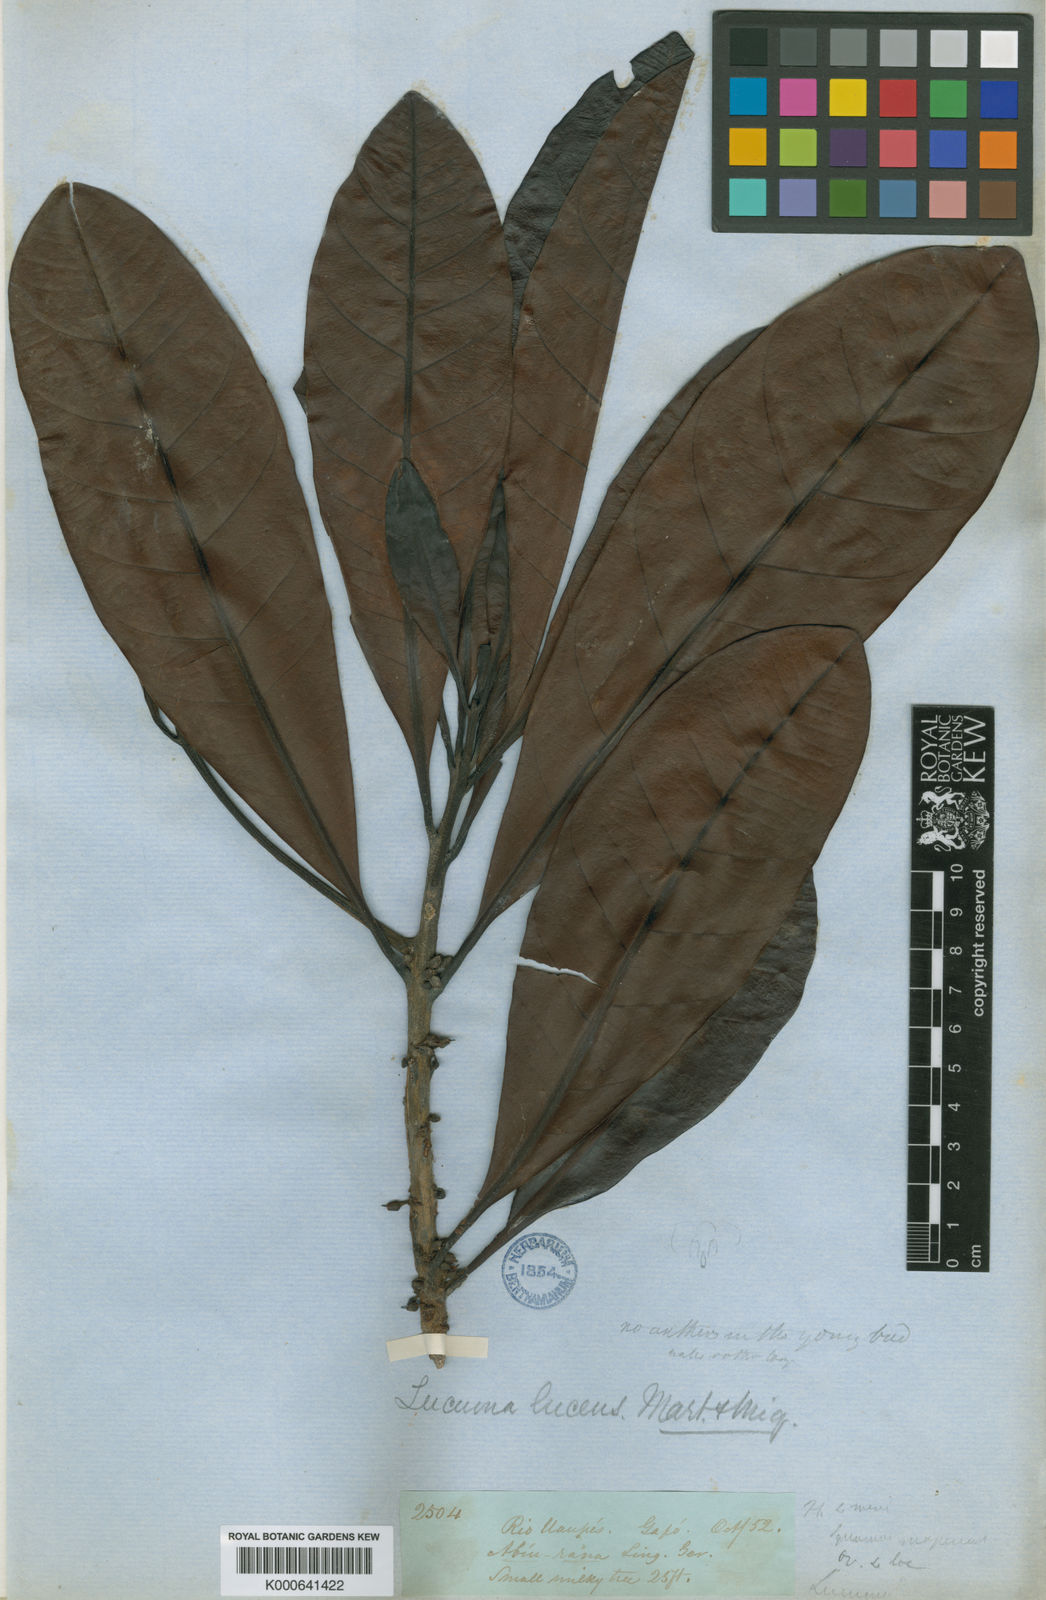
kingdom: Plantae
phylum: Tracheophyta
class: Magnoliopsida
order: Ericales
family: Sapotaceae
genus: Pouteria
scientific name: Pouteria lucens
